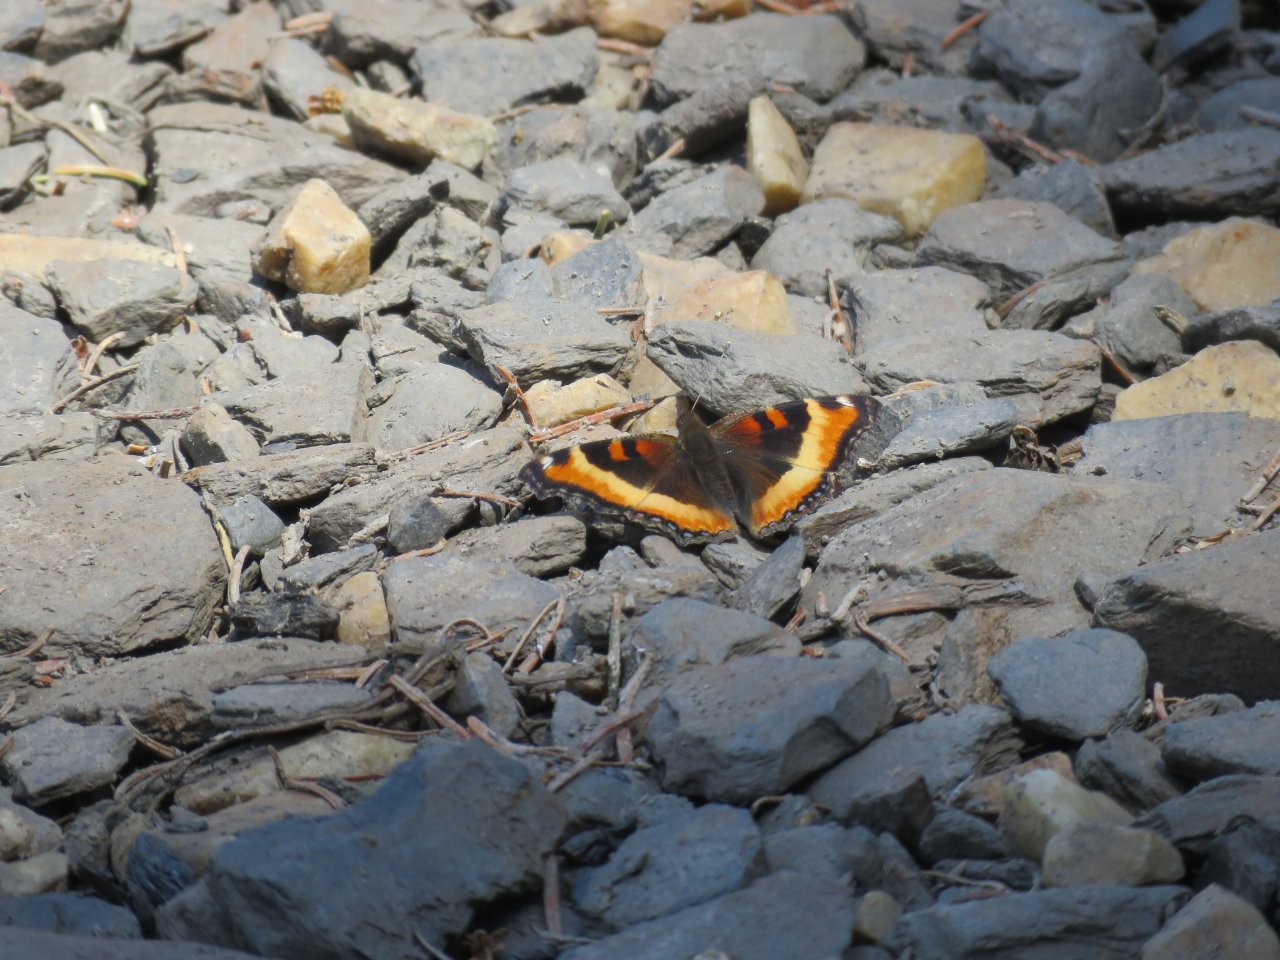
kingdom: Animalia
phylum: Arthropoda
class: Insecta
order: Lepidoptera
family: Nymphalidae
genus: Aglais
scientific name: Aglais milberti
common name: Milbert's Tortoiseshell
